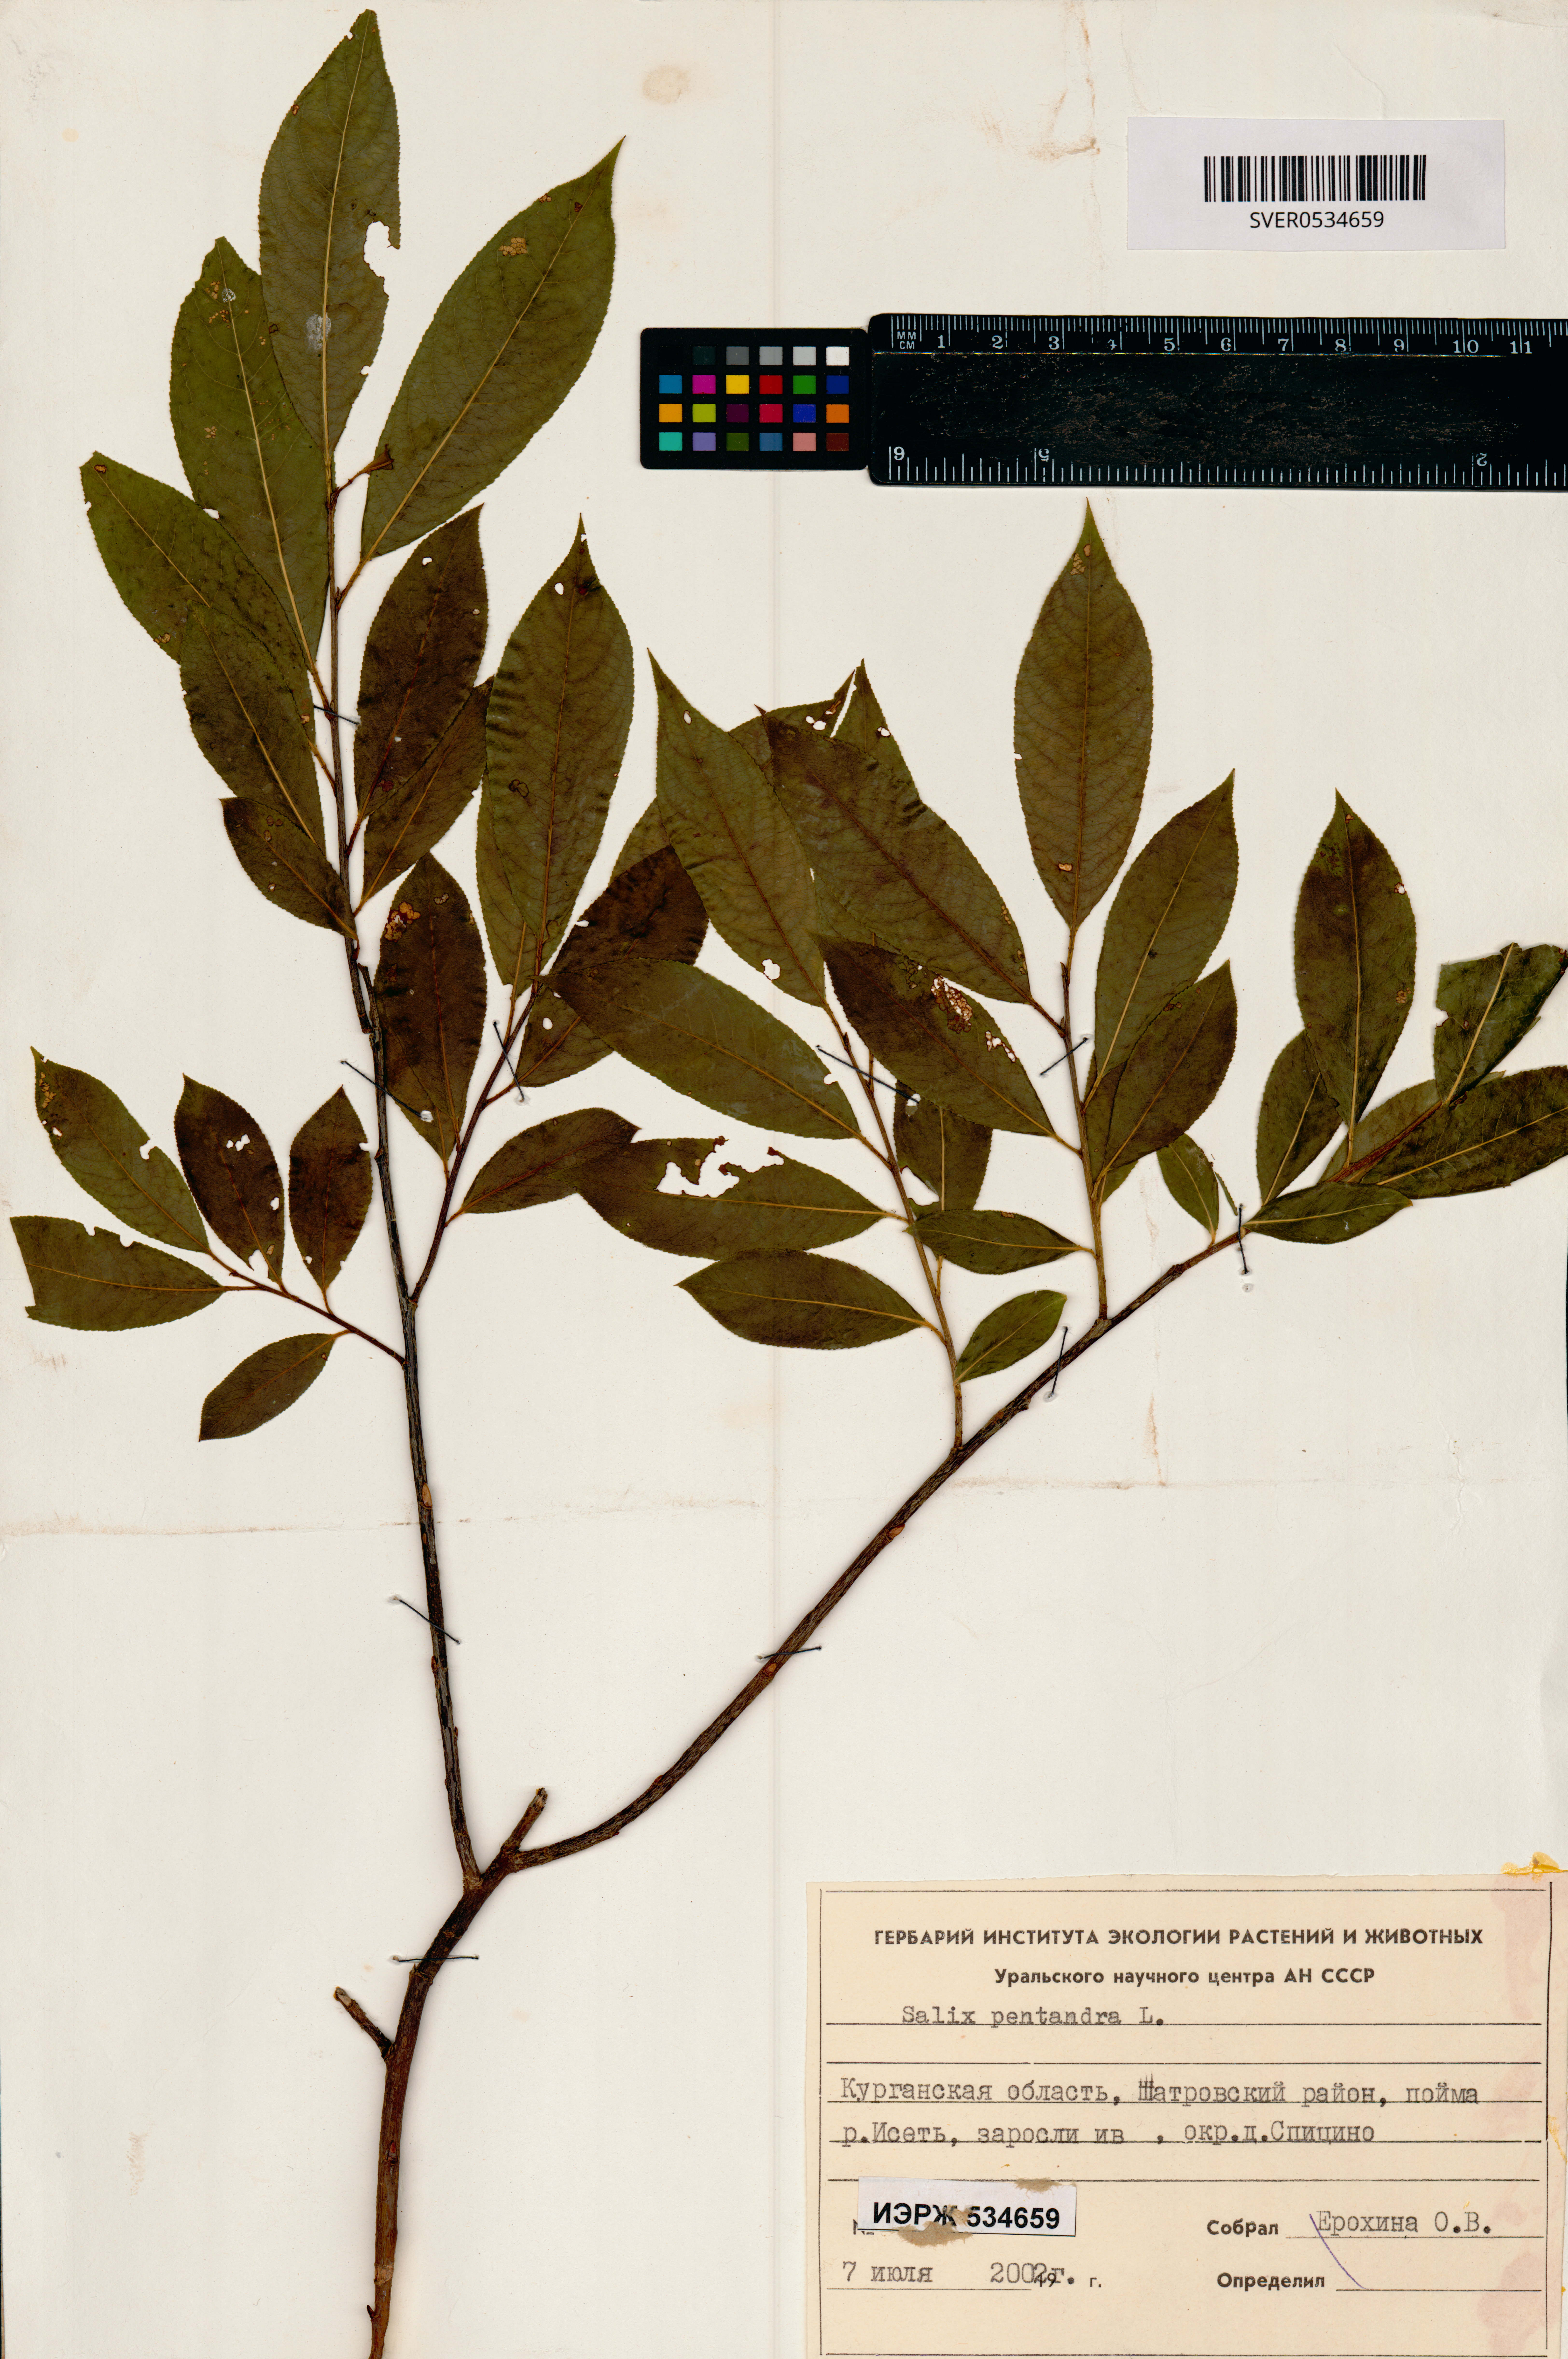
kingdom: Plantae
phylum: Tracheophyta
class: Magnoliopsida
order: Malpighiales
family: Salicaceae
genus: Salix
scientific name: Salix pentandra
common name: Bay willow
